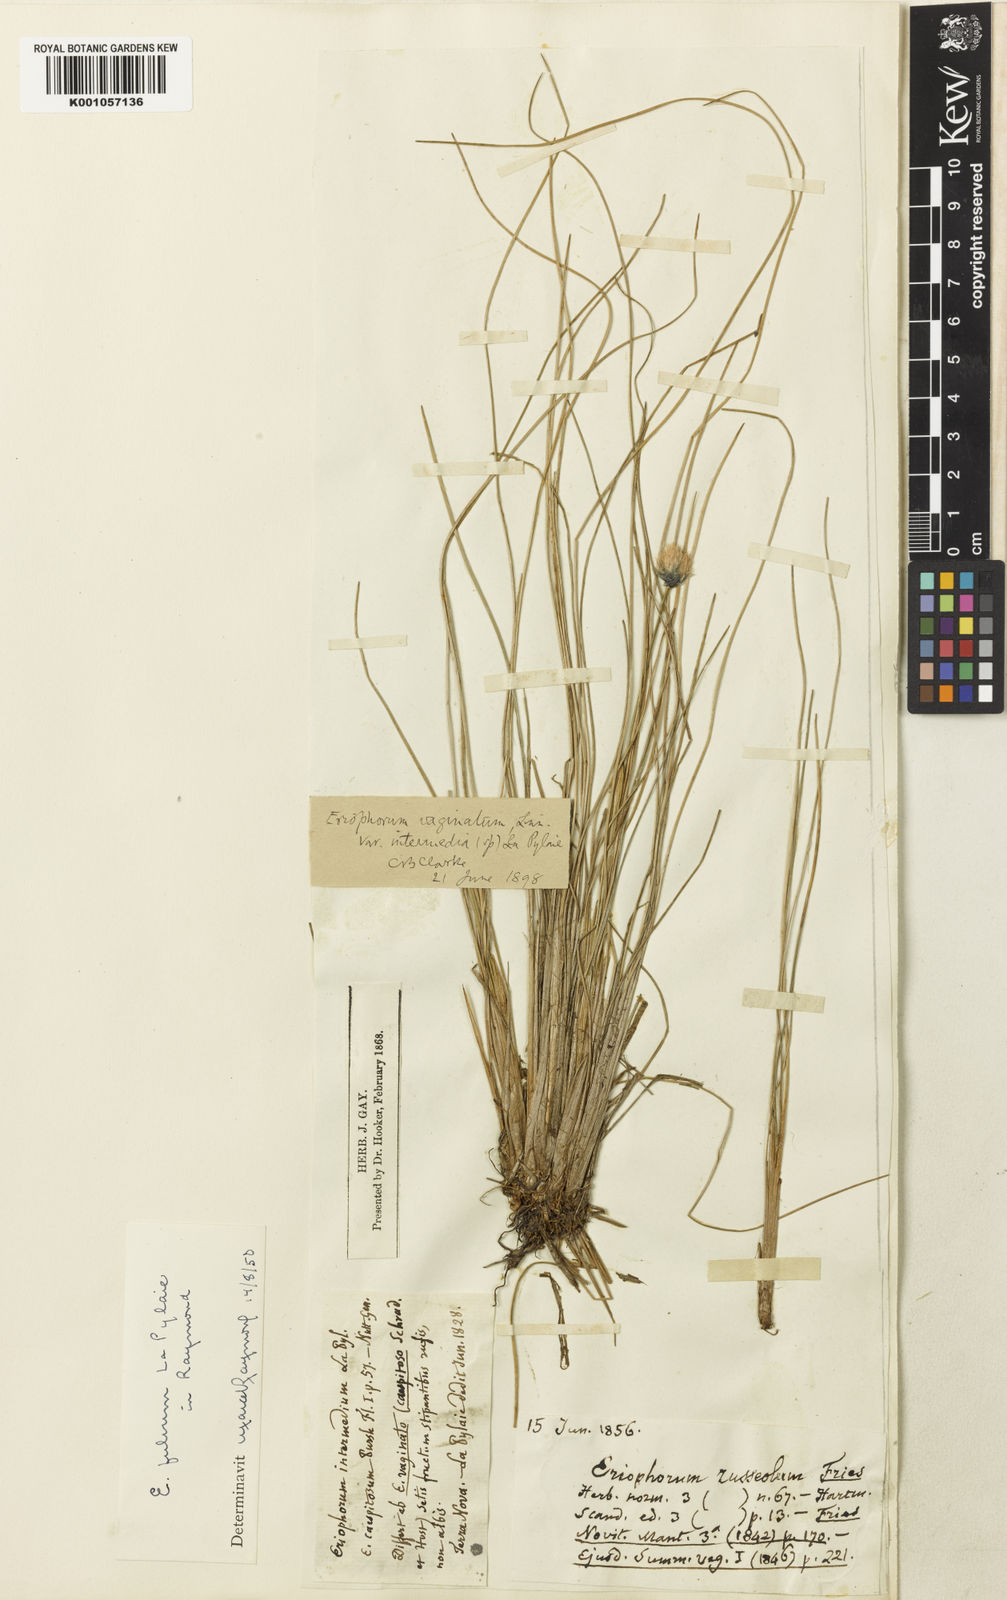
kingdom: Plantae
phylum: Tracheophyta
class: Liliopsida
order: Poales
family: Cyperaceae
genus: Eriophorum
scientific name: Eriophorum vaginatum
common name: Hare's-tail cottongrass
